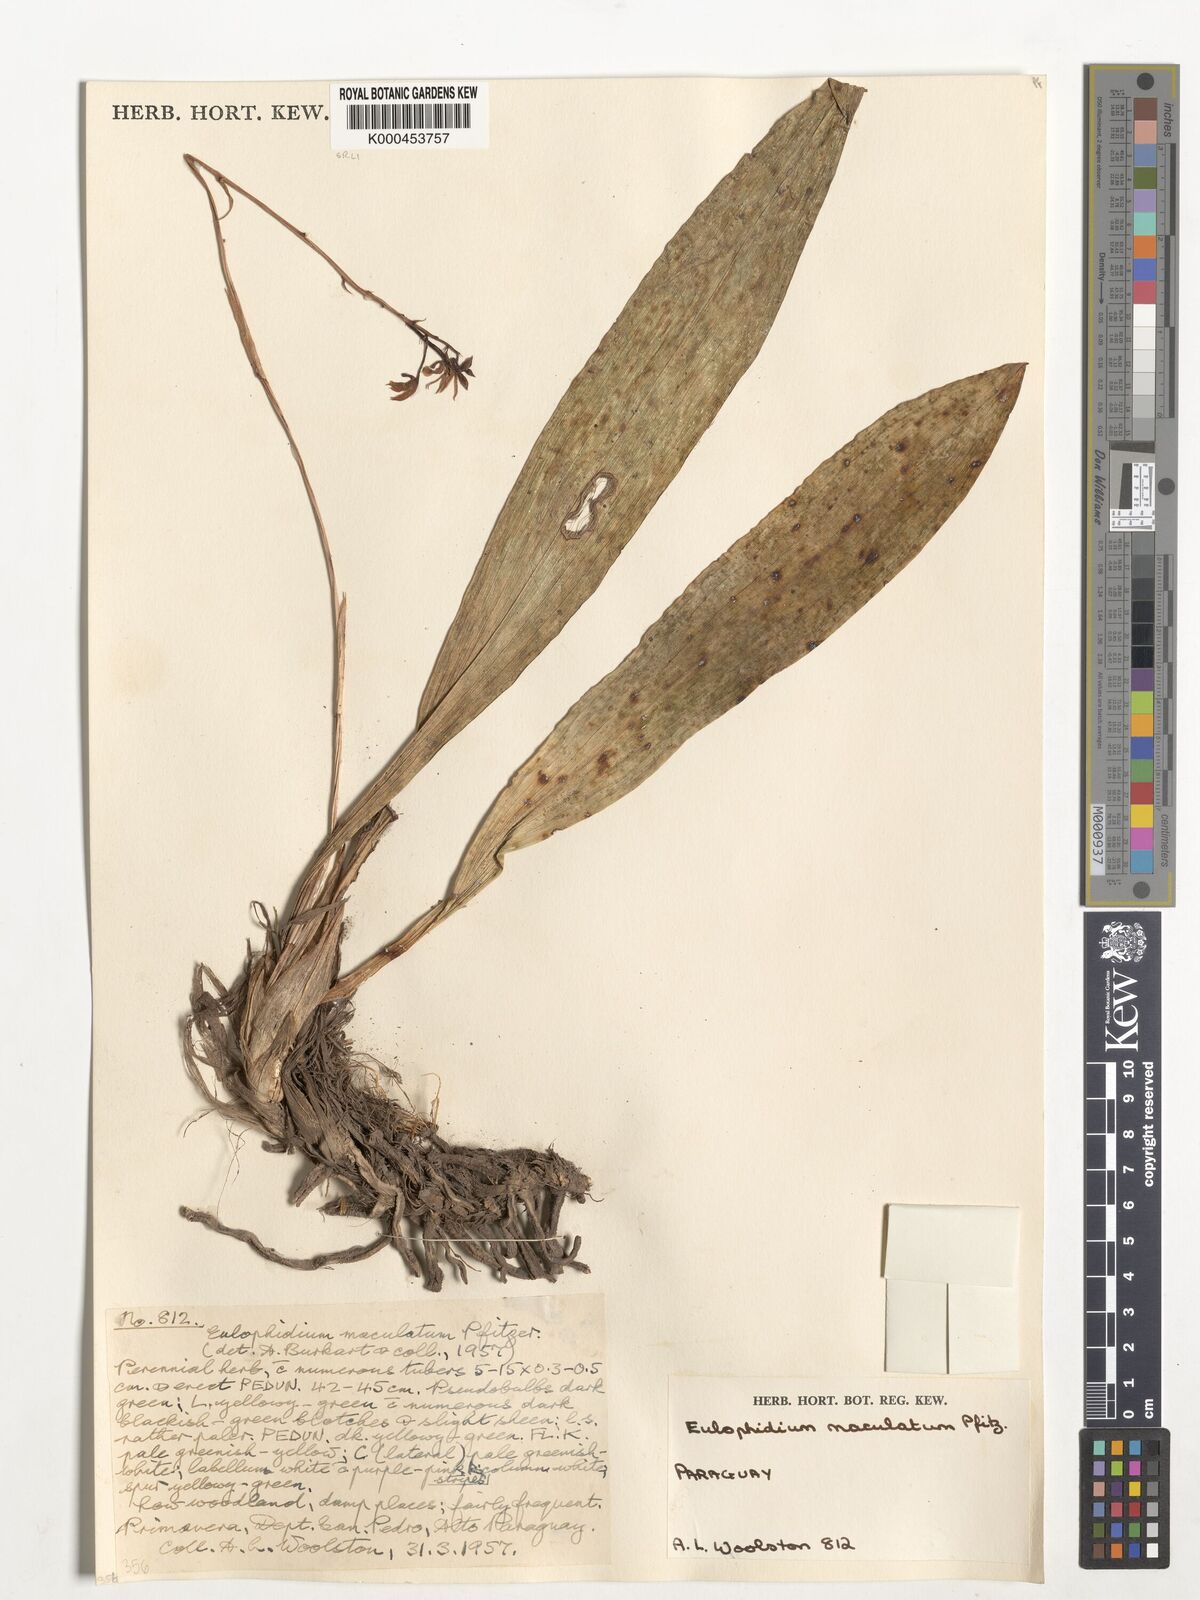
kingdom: Plantae
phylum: Tracheophyta
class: Liliopsida
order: Asparagales
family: Orchidaceae
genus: Eulophia
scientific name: Eulophia maculata
